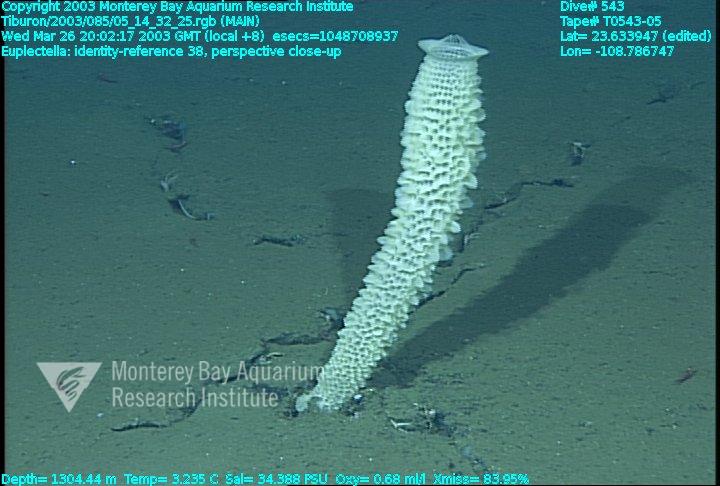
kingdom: Animalia
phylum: Porifera
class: Hexactinellida
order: Lyssacinosida
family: Euplectellidae
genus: Euplectella
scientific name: Euplectella
